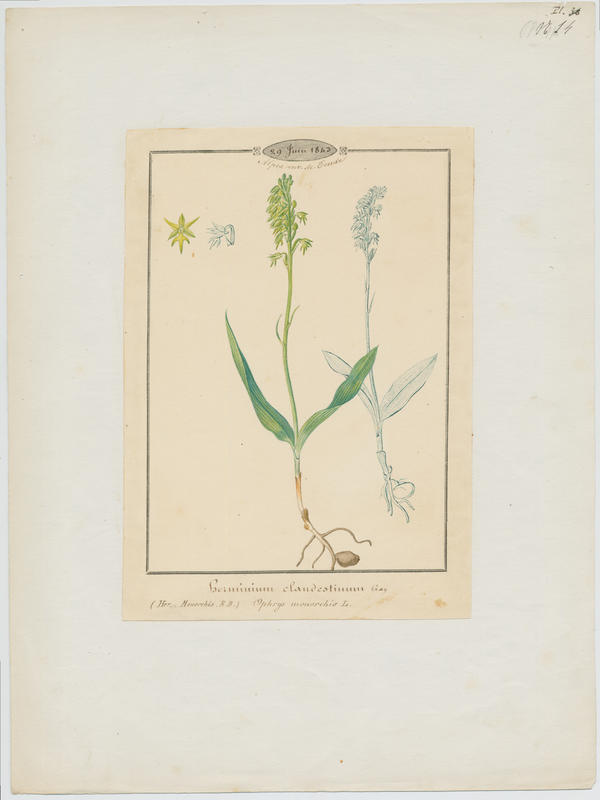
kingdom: Plantae
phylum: Tracheophyta
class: Liliopsida
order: Asparagales
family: Orchidaceae
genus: Herminium
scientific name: Herminium monorchis
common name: Musk orchid
